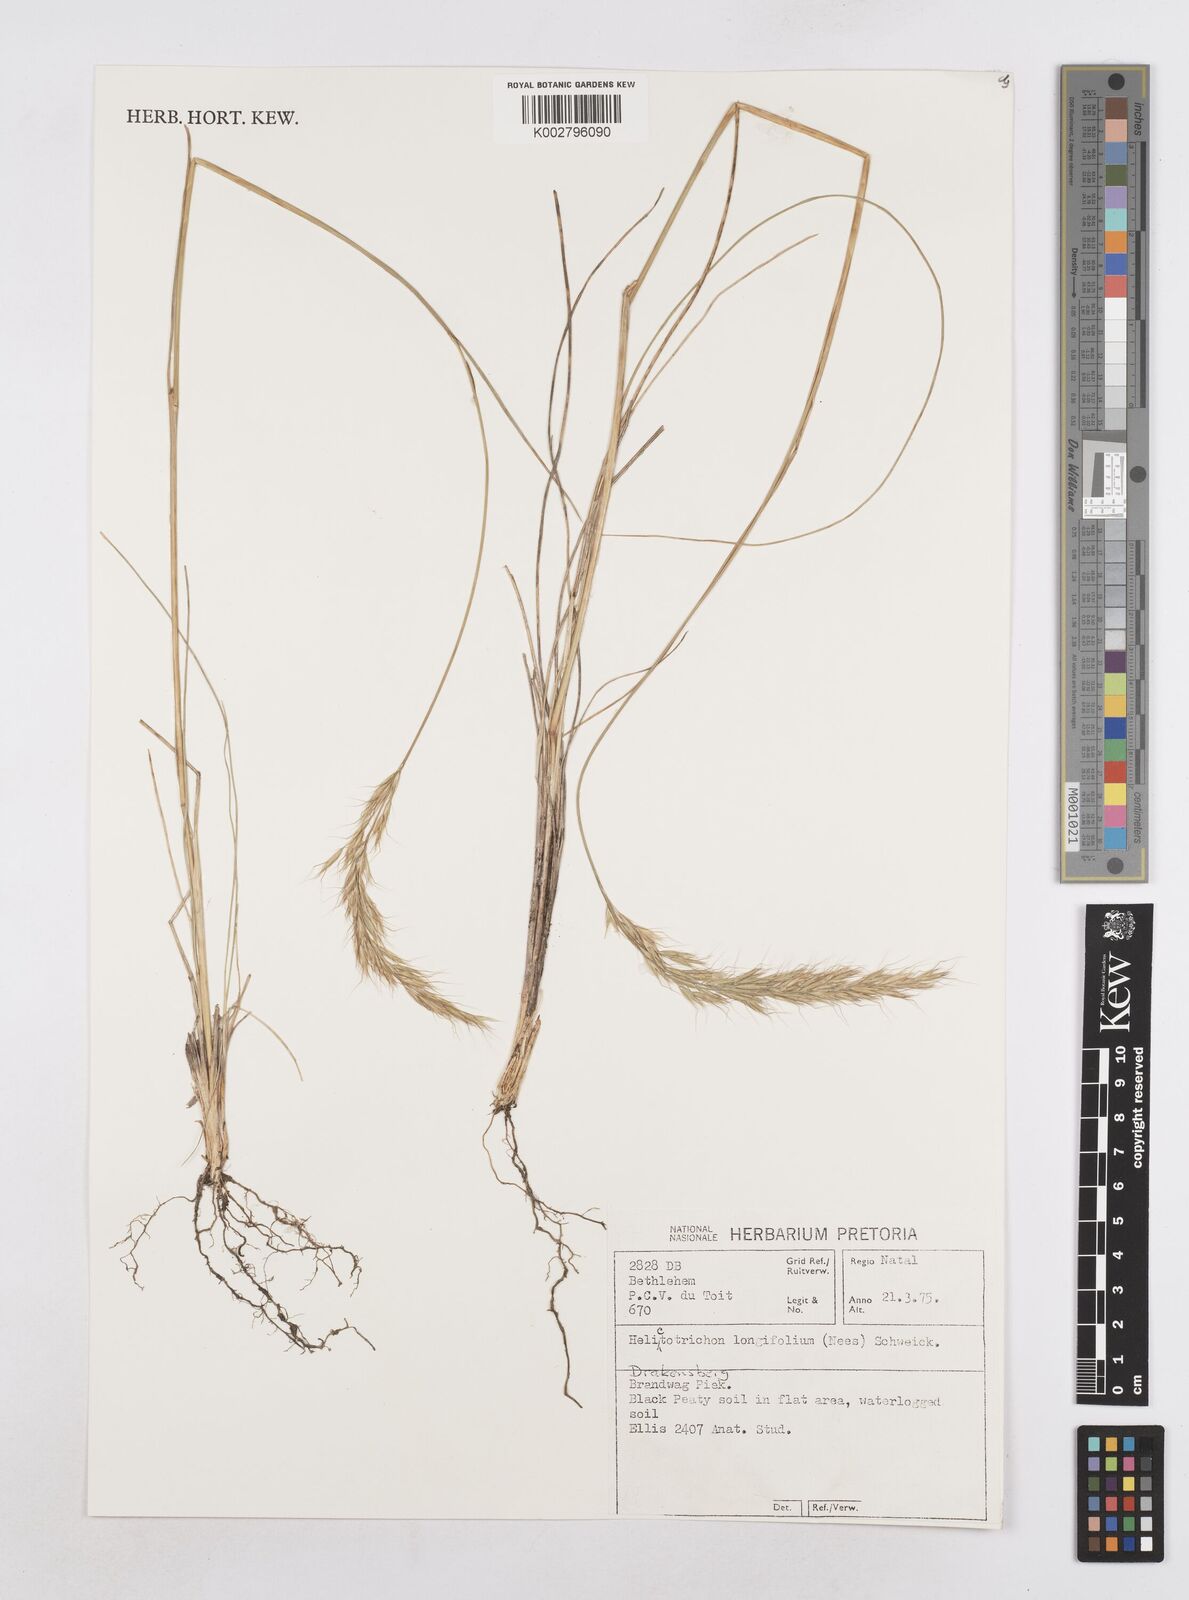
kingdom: Plantae
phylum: Tracheophyta
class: Liliopsida
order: Poales
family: Poaceae
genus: Trisetopsis
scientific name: Trisetopsis longifolia
